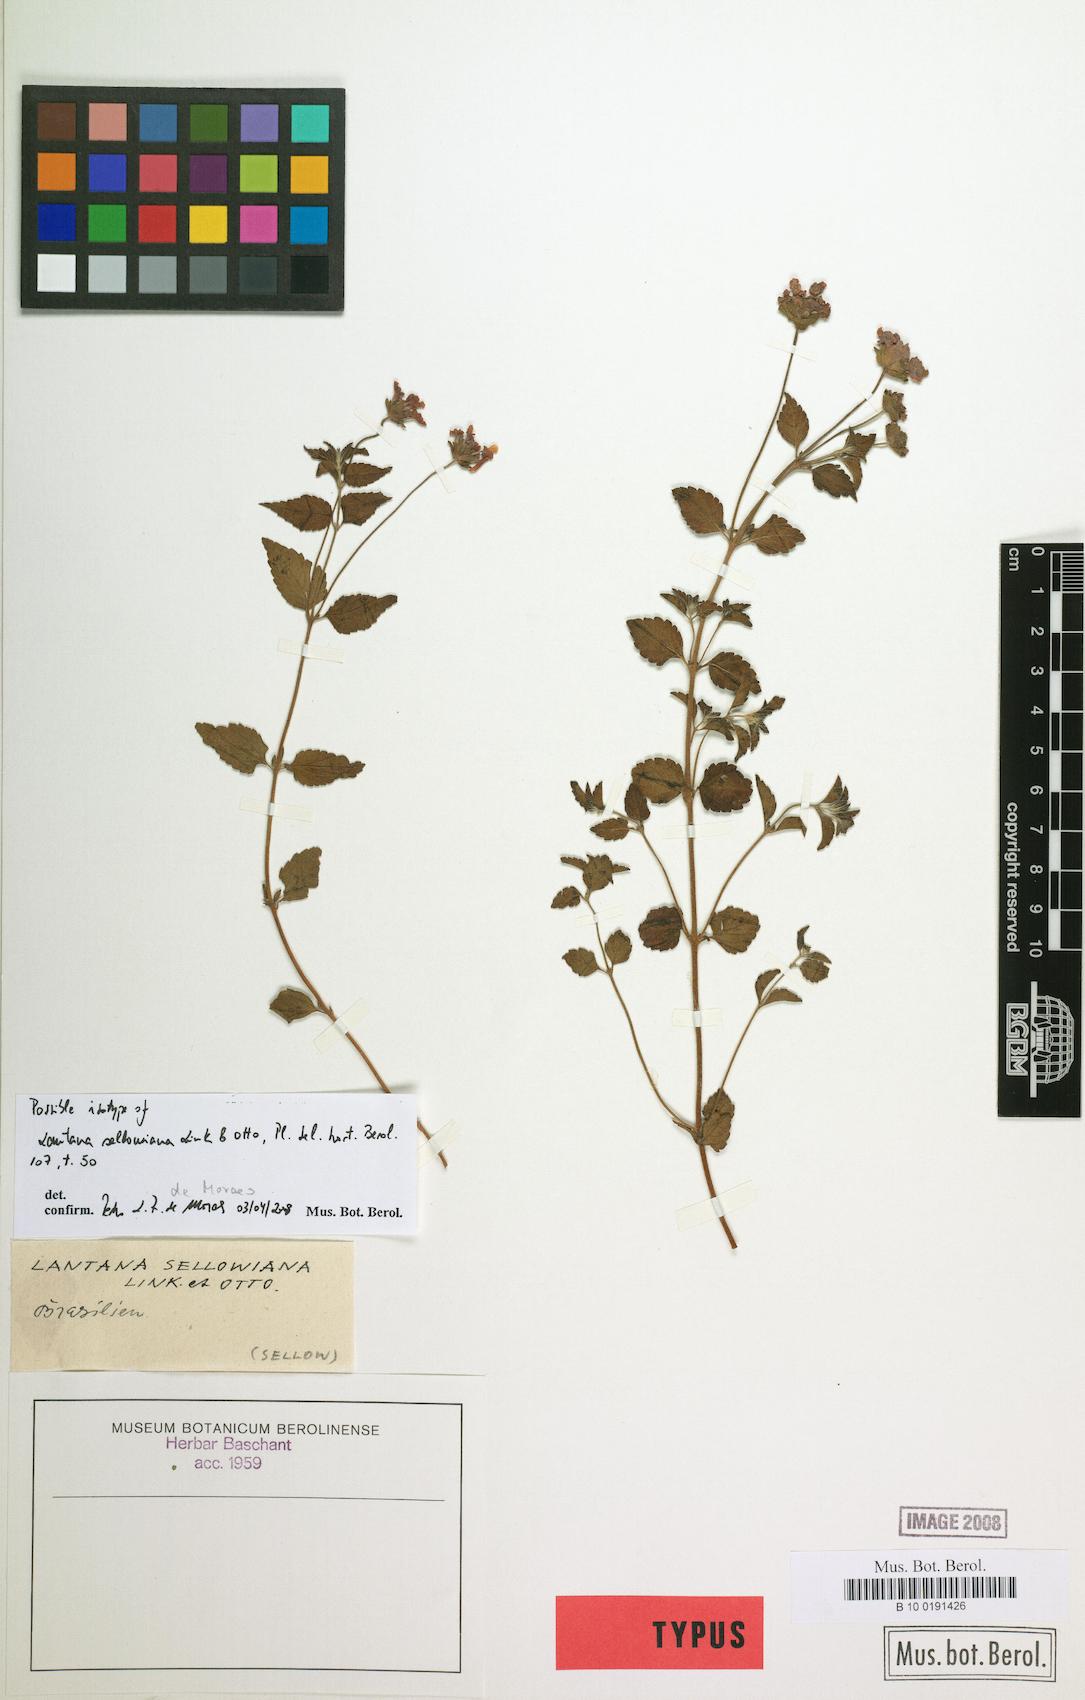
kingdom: Plantae
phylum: Tracheophyta
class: Magnoliopsida
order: Lamiales
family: Verbenaceae
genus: Lantana
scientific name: Lantana montevidensis
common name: Trailing shrubverbena
